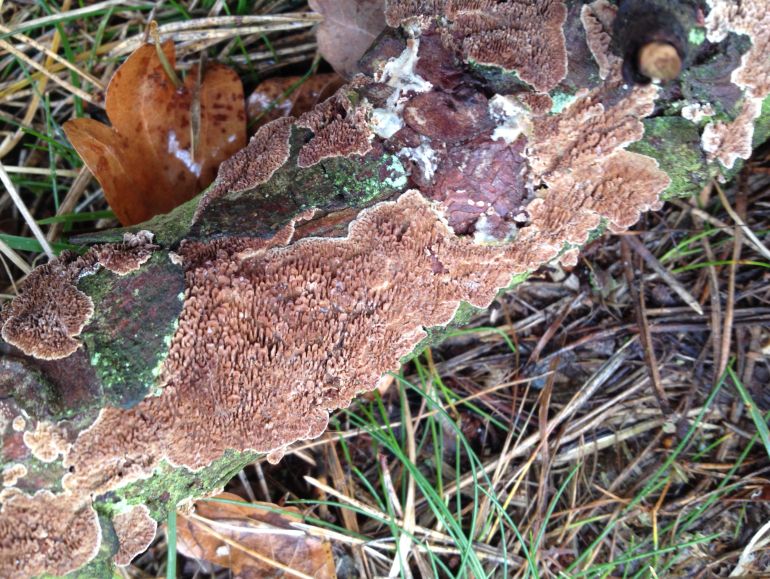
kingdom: Fungi
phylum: Basidiomycota
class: Agaricomycetes
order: Hymenochaetales
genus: Trichaptum
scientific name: Trichaptum fuscoviolaceum
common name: tandet violporesvamp
